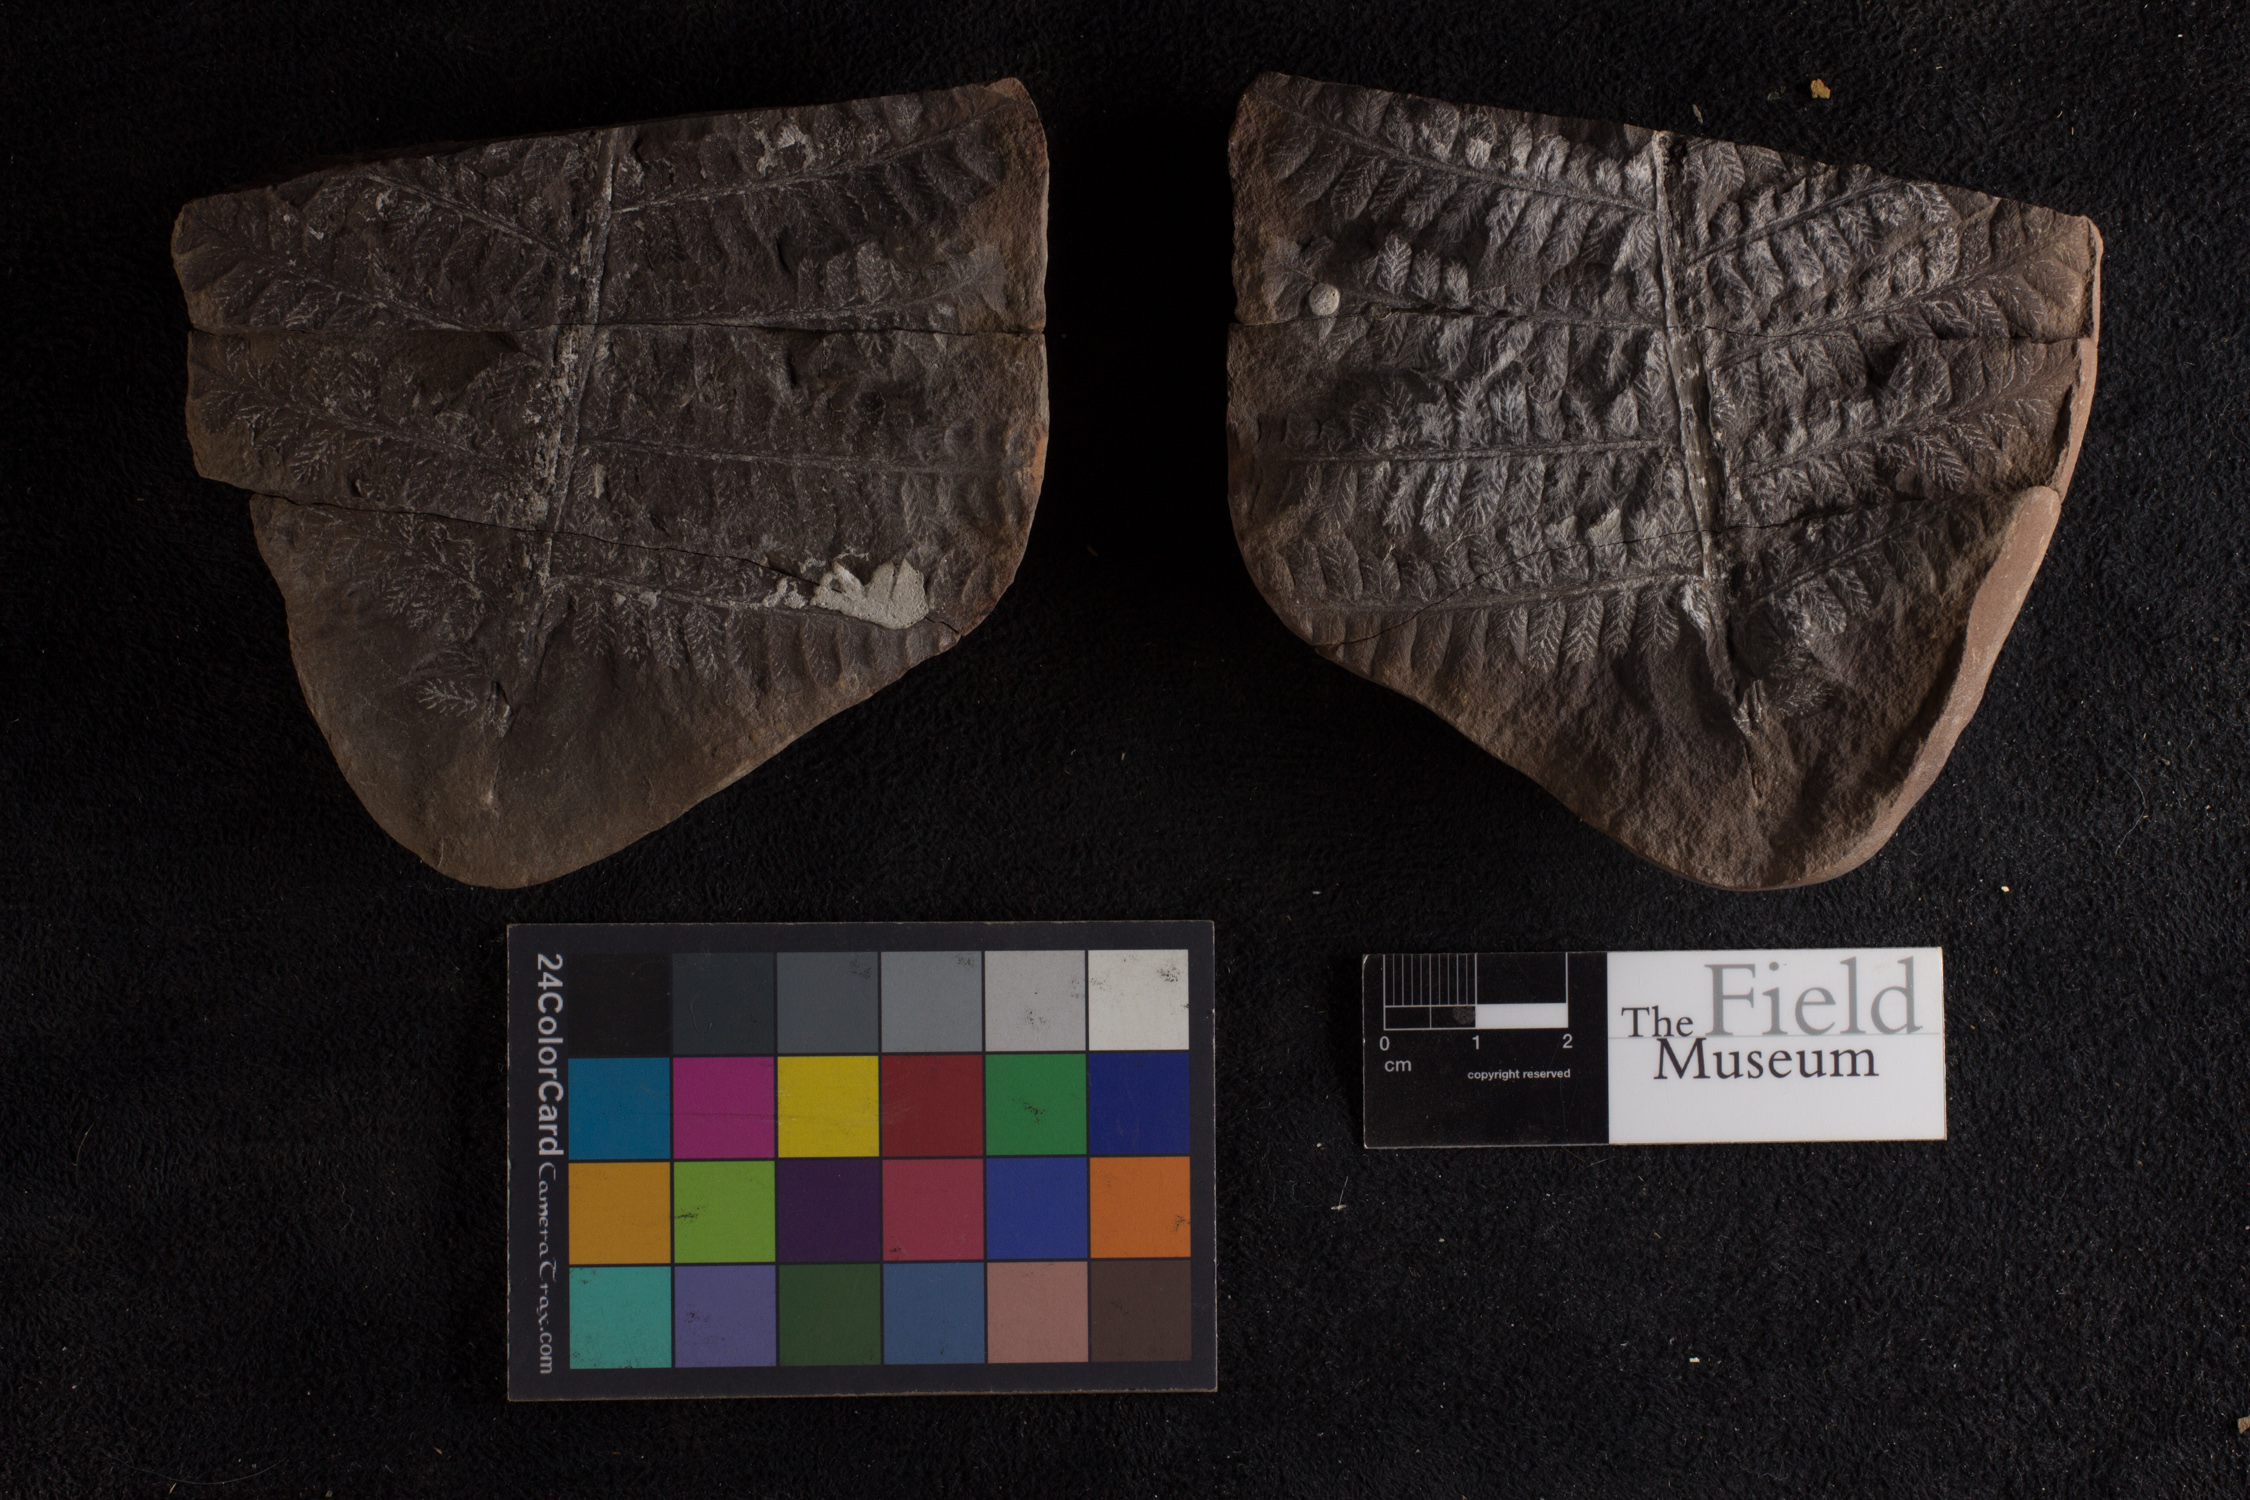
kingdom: Plantae
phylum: Tracheophyta
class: Polypodiopsida
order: Marattiales
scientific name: Marattiales
